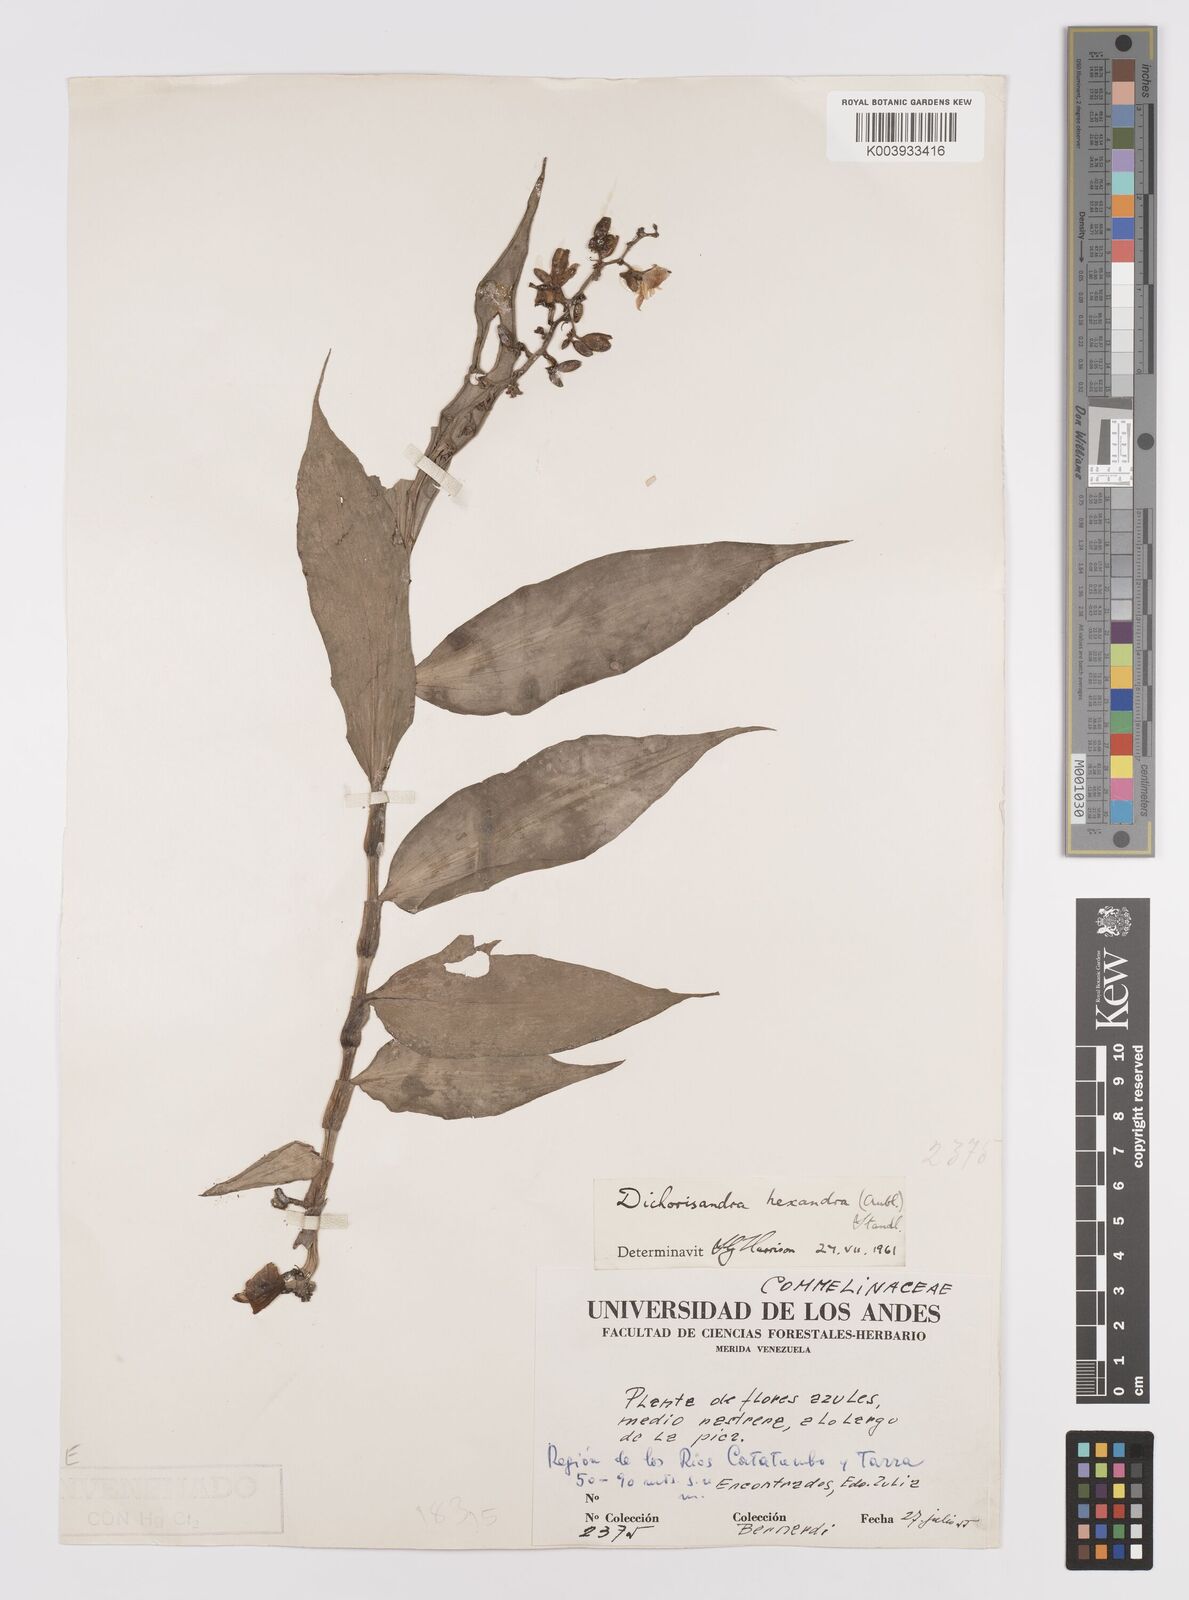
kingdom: Plantae
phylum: Tracheophyta
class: Liliopsida
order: Commelinales
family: Commelinaceae
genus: Dichorisandra
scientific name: Dichorisandra hexandra
